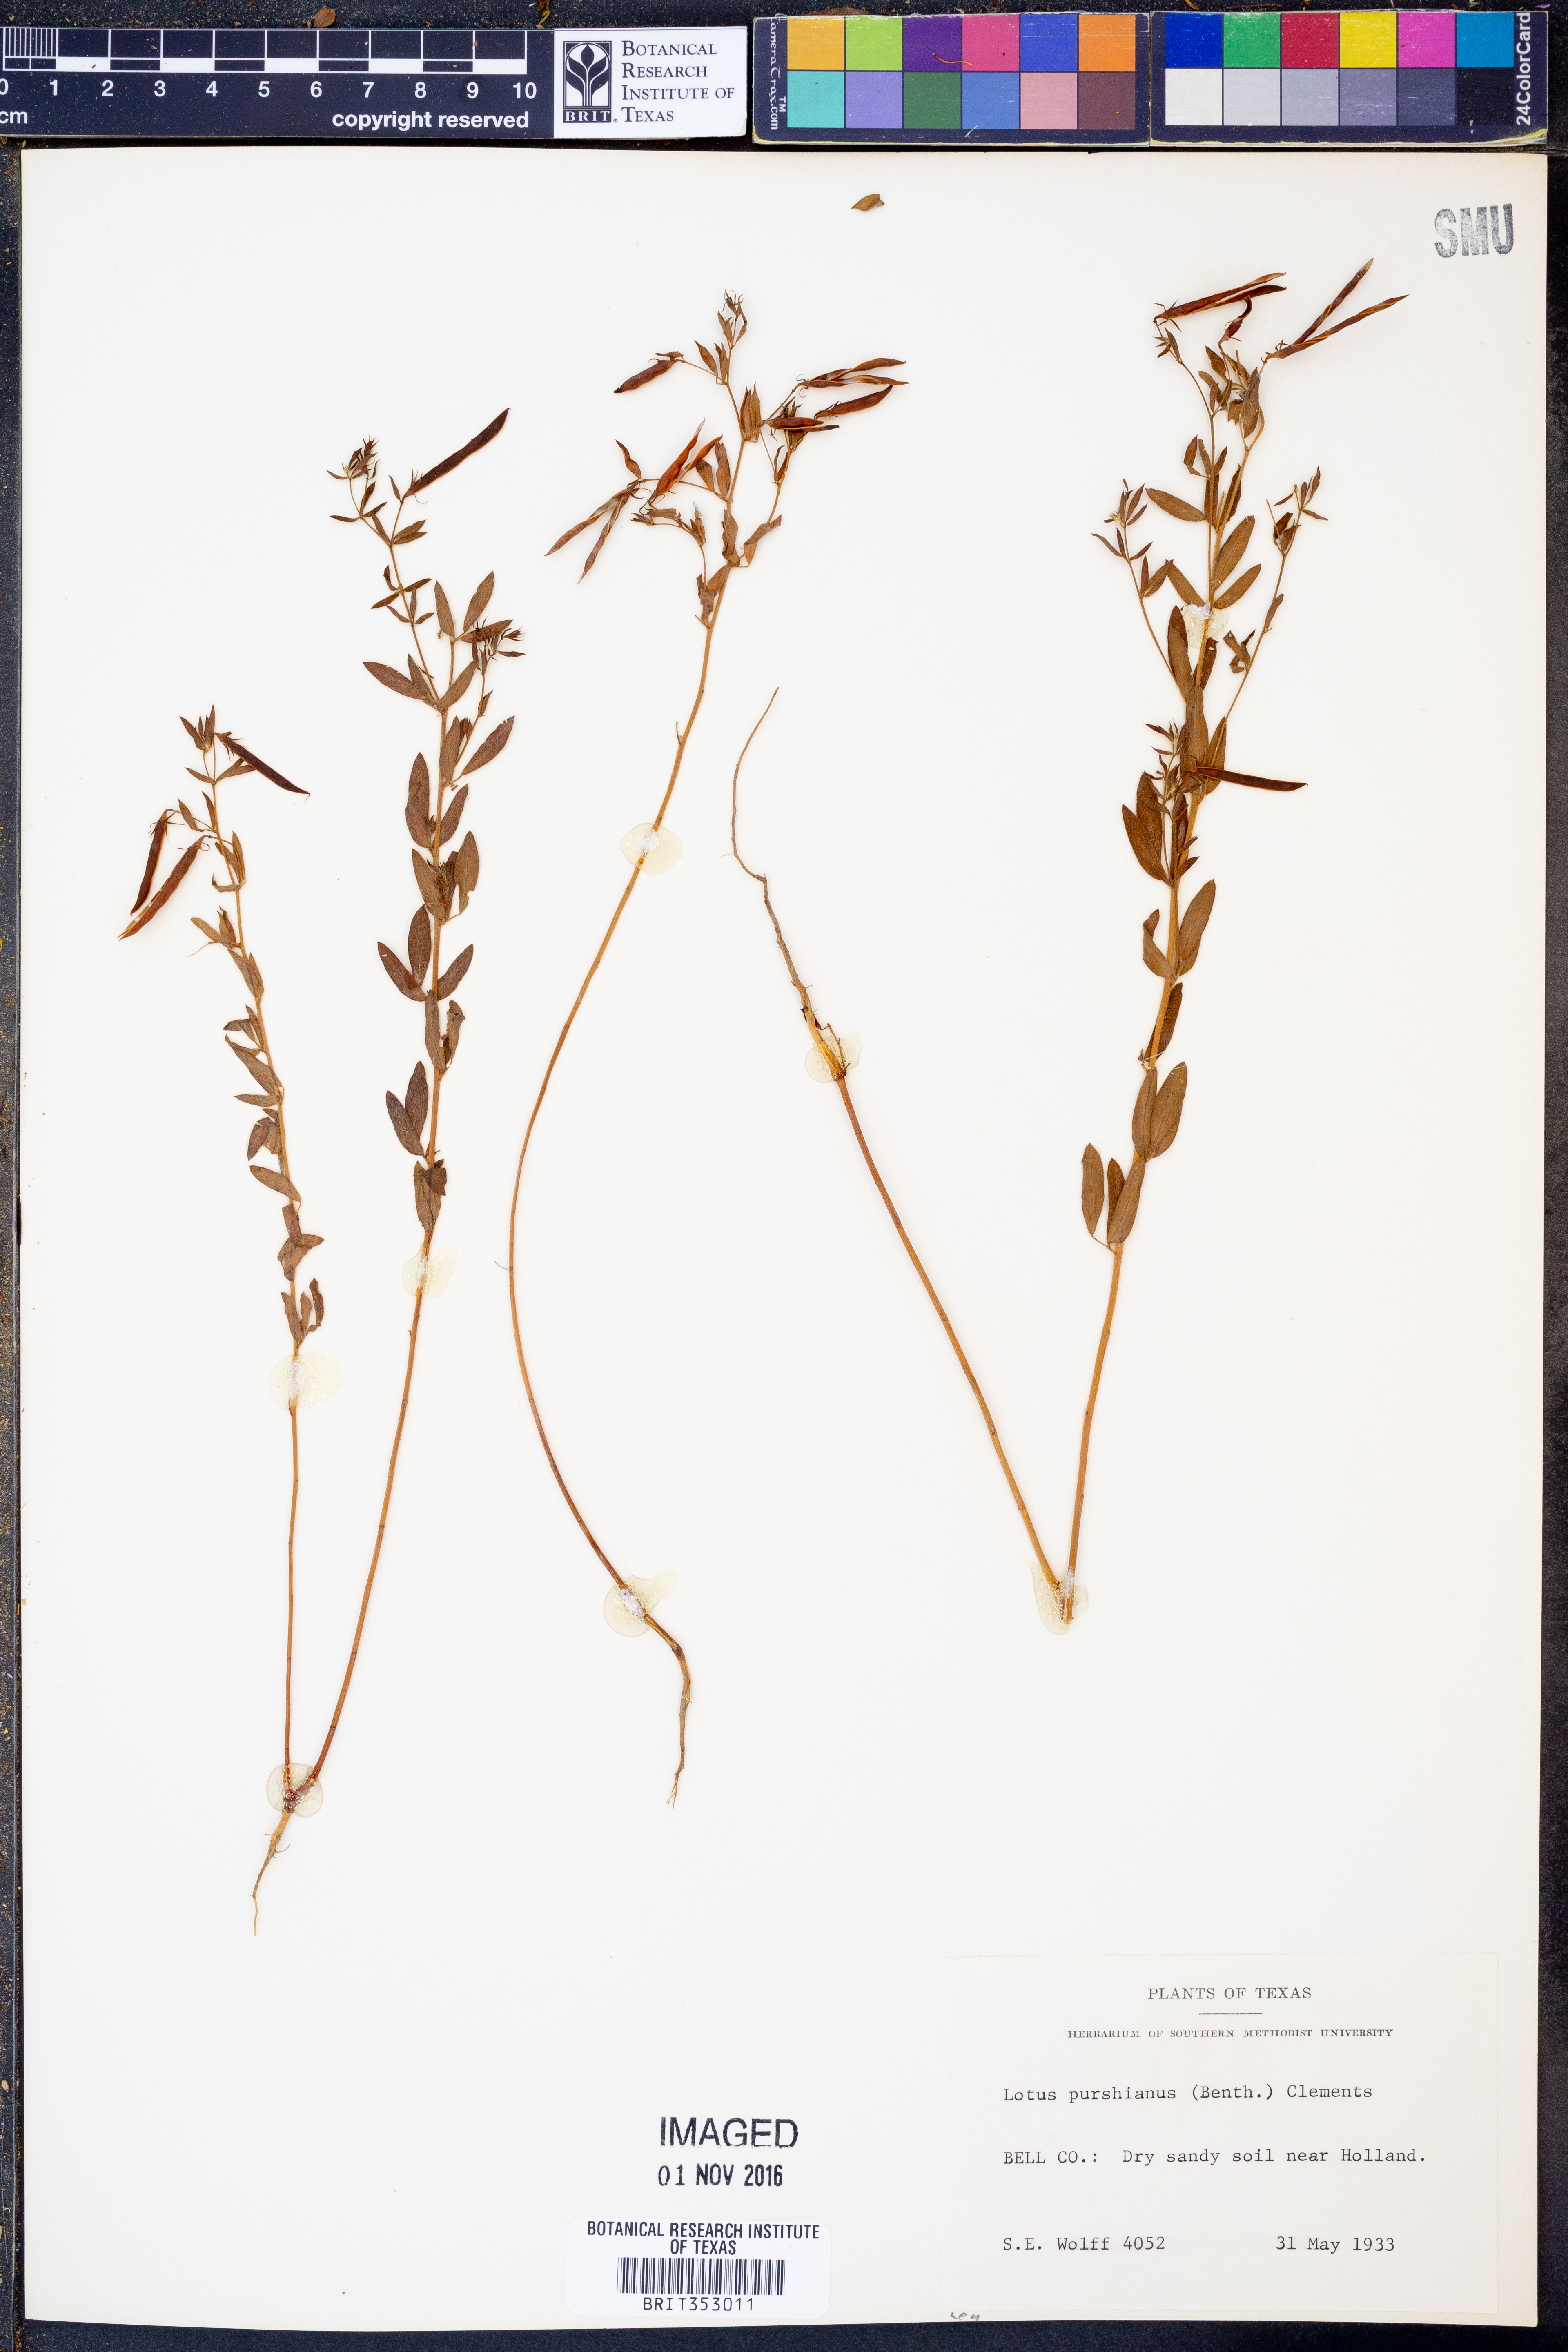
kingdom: Plantae
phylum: Tracheophyta
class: Magnoliopsida
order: Fabales
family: Fabaceae
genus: Acmispon
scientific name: Acmispon americanus
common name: American bird's-foot trefoil
